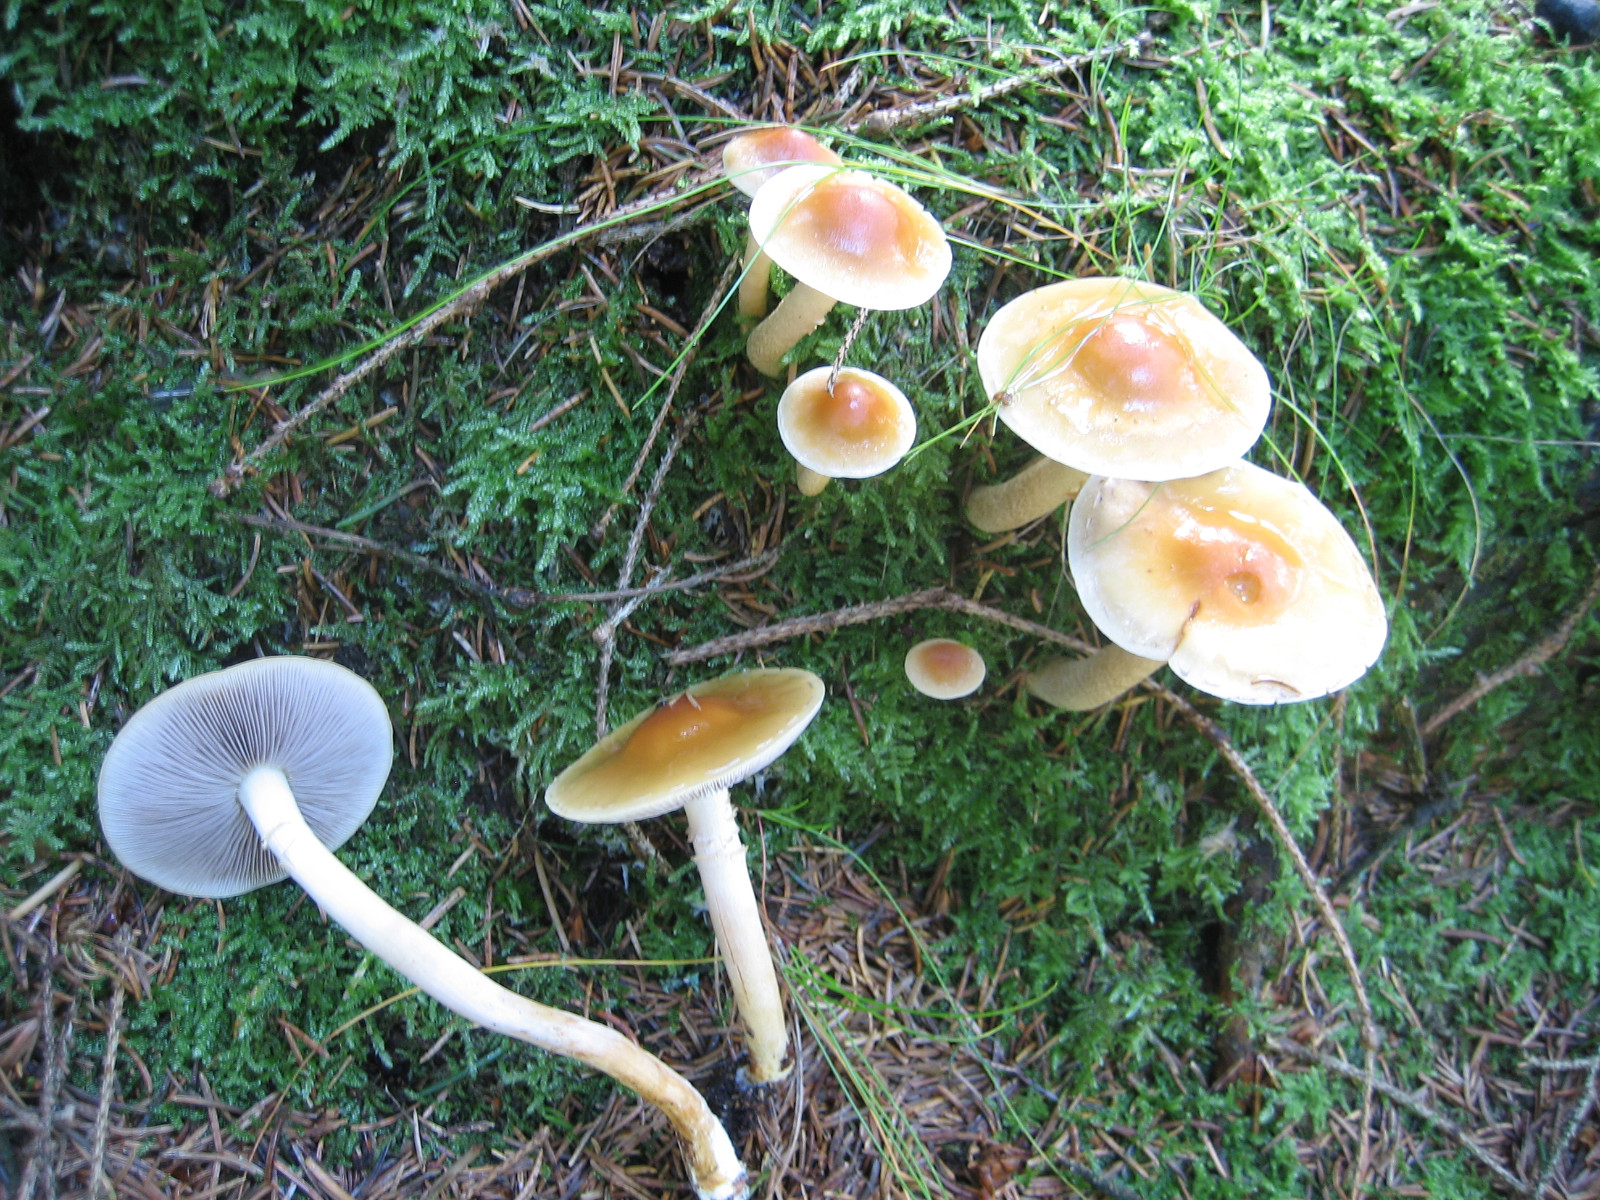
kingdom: Fungi
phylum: Basidiomycota
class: Agaricomycetes
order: Agaricales
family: Strophariaceae
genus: Hypholoma
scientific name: Hypholoma capnoides
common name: gran-svovlhat
